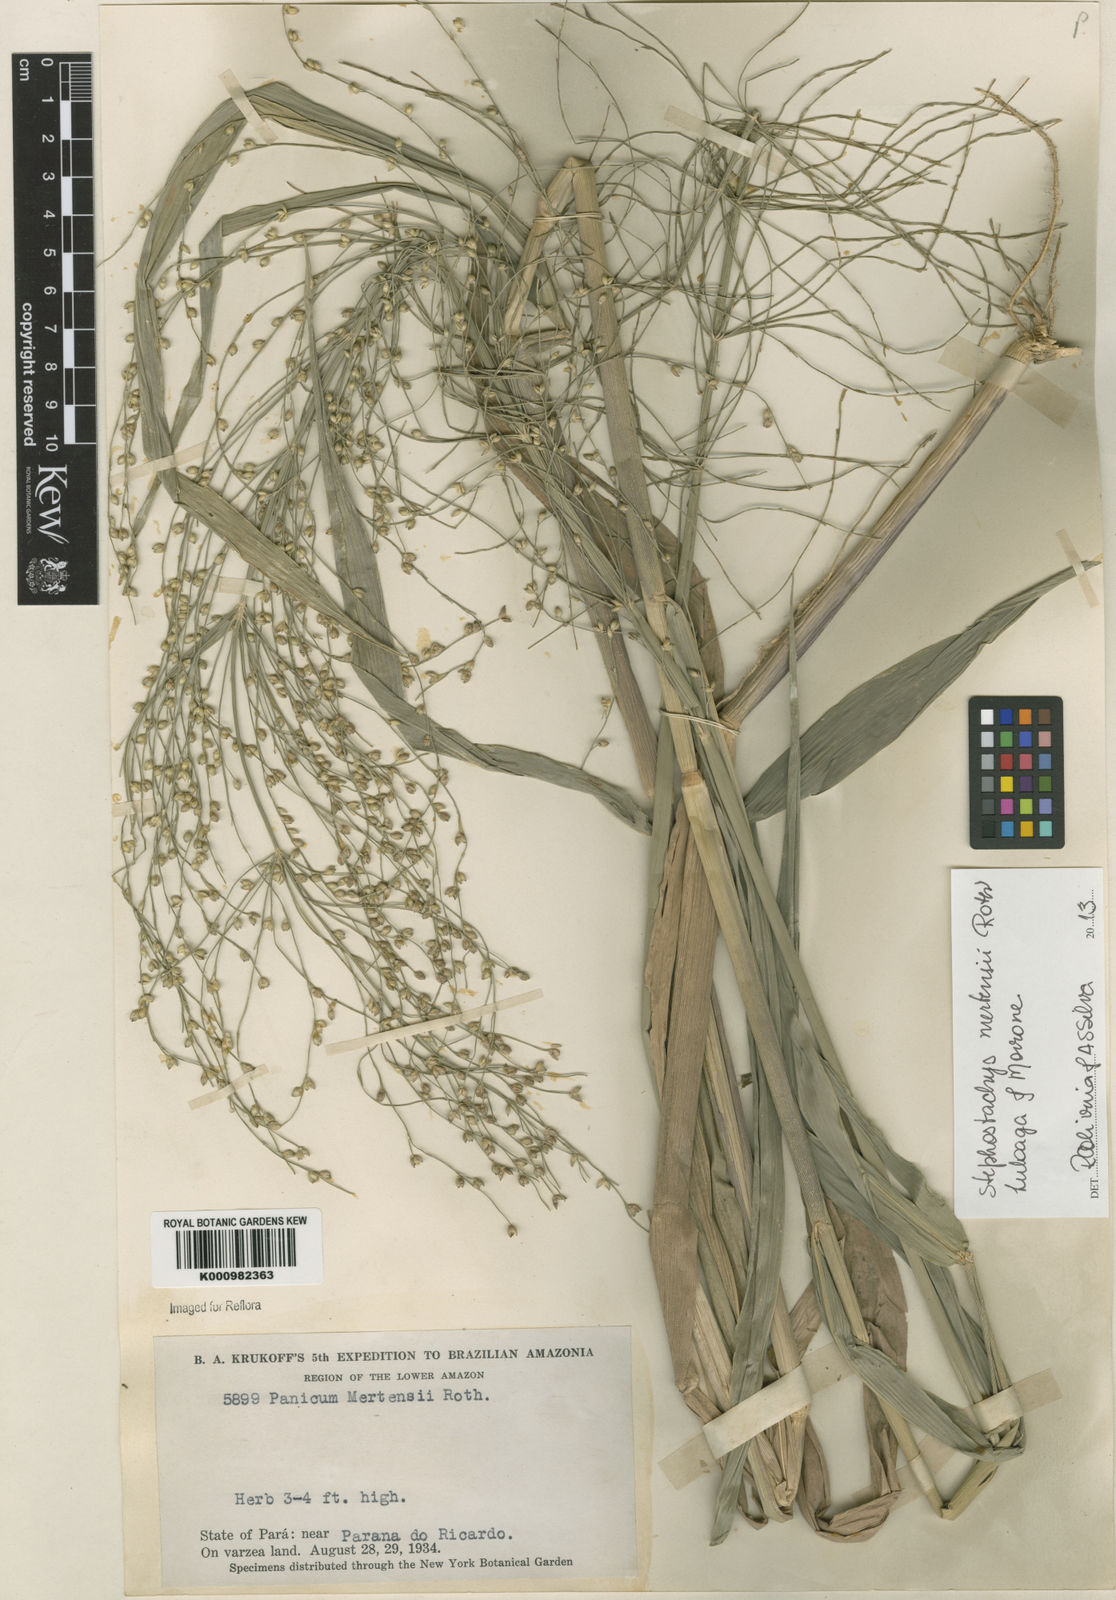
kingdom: Plantae
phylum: Tracheophyta
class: Liliopsida
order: Poales
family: Poaceae
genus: Stephostachys
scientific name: Stephostachys mertensii
